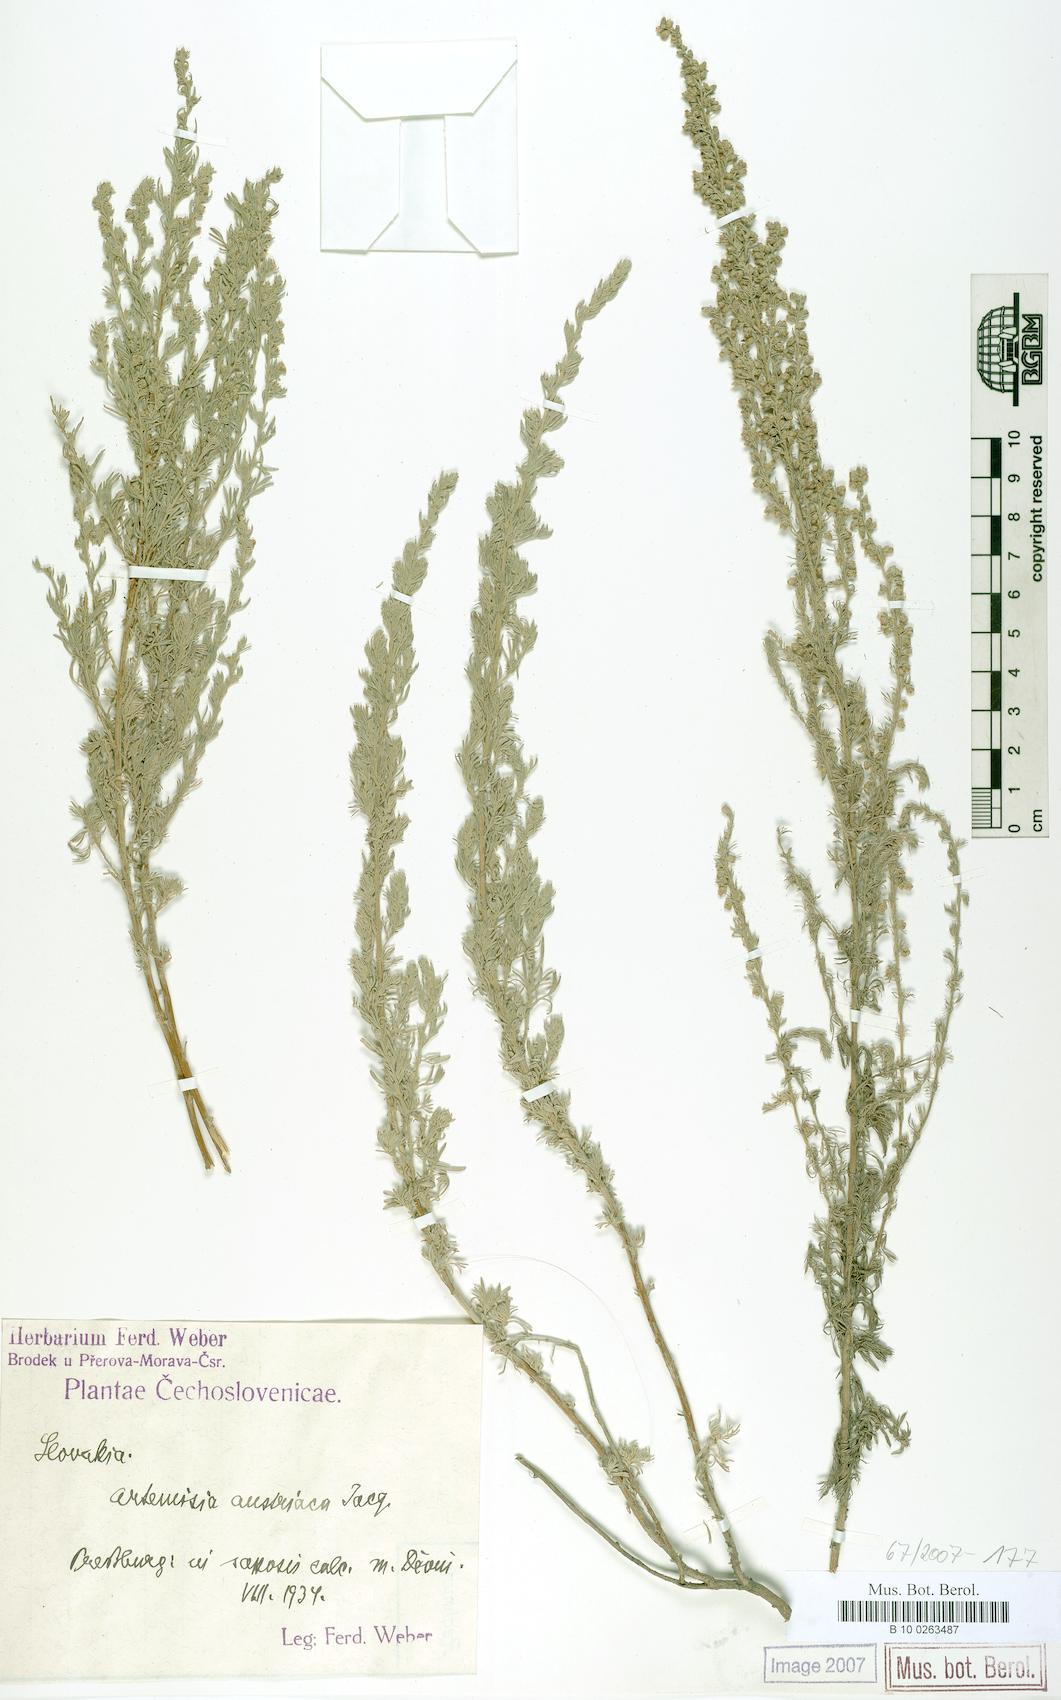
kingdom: Plantae
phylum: Tracheophyta
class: Magnoliopsida
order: Asterales
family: Asteraceae
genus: Artemisia
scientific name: Artemisia austriaca
